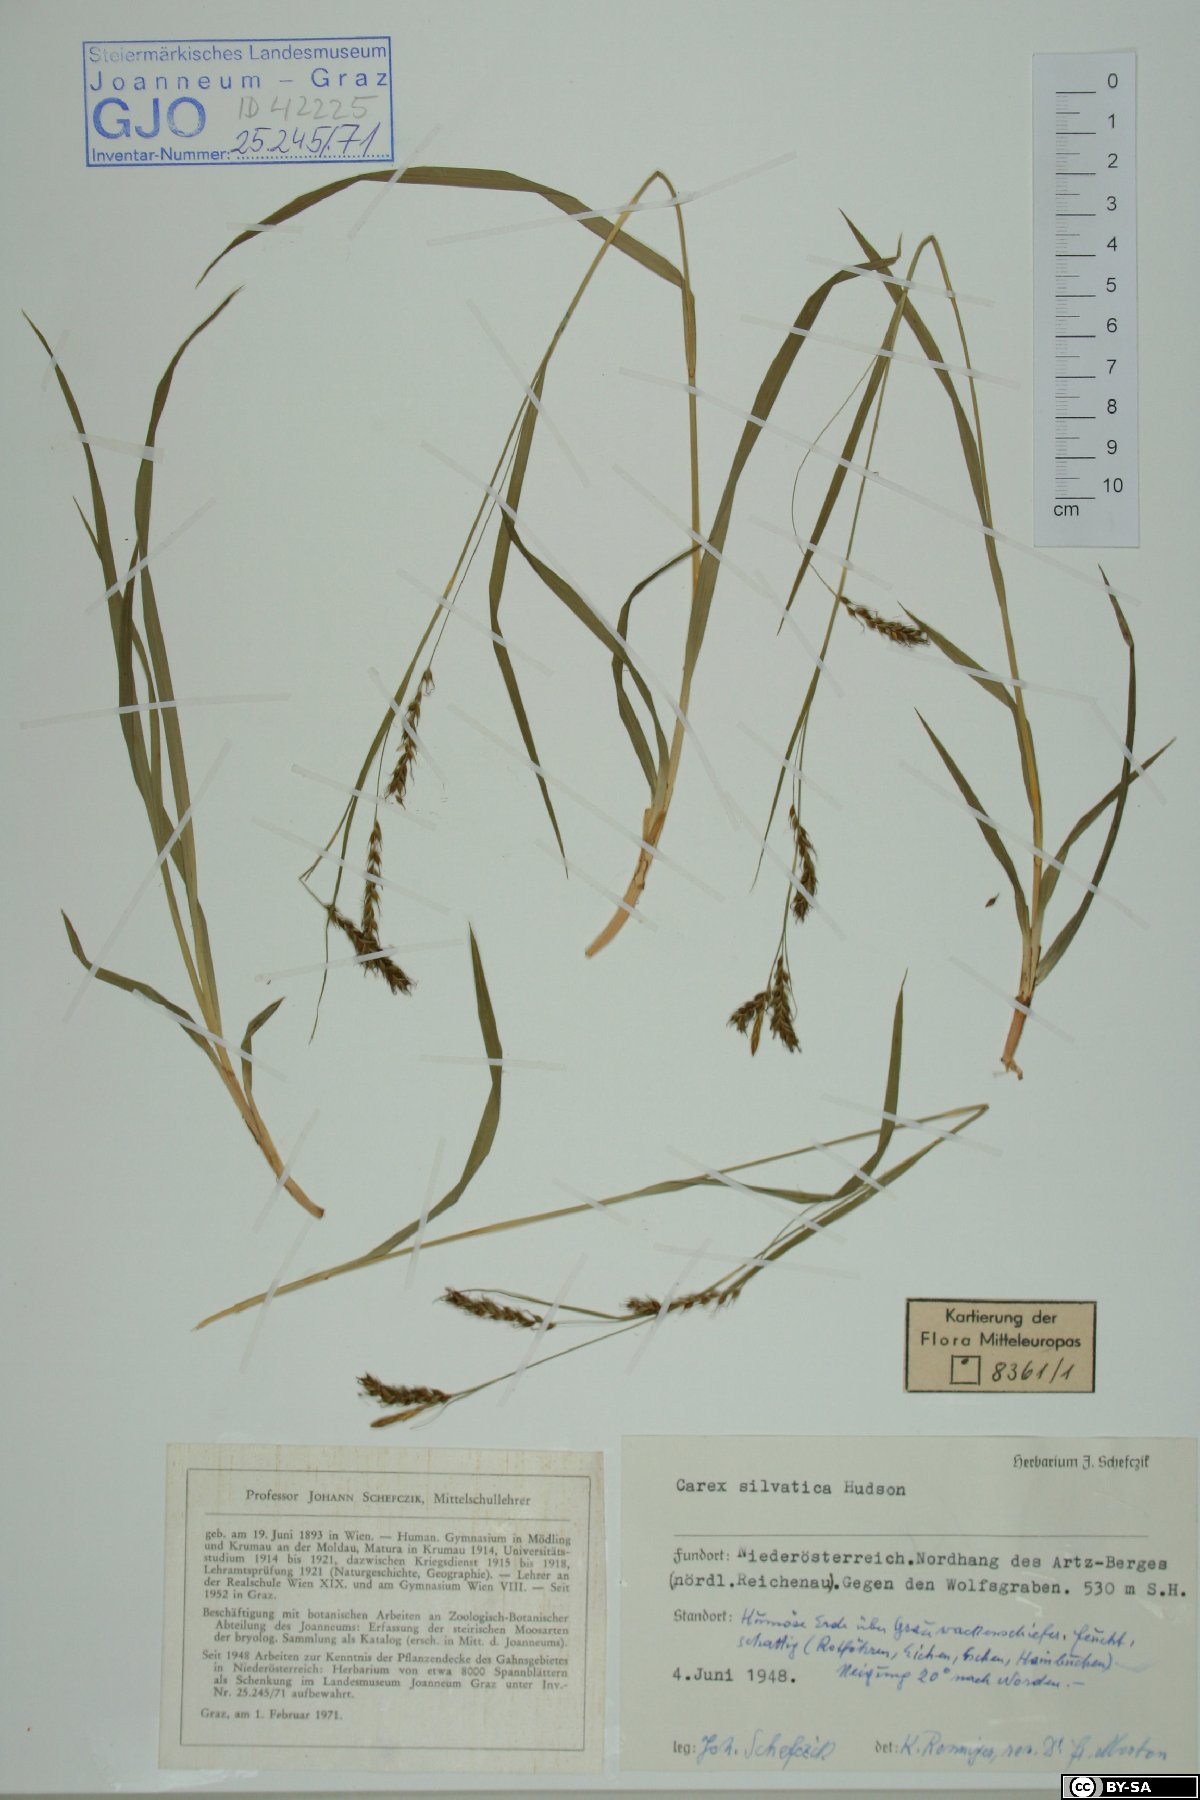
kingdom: Plantae
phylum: Tracheophyta
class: Liliopsida
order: Poales
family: Cyperaceae
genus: Carex
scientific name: Carex sylvatica
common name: Wood-sedge
